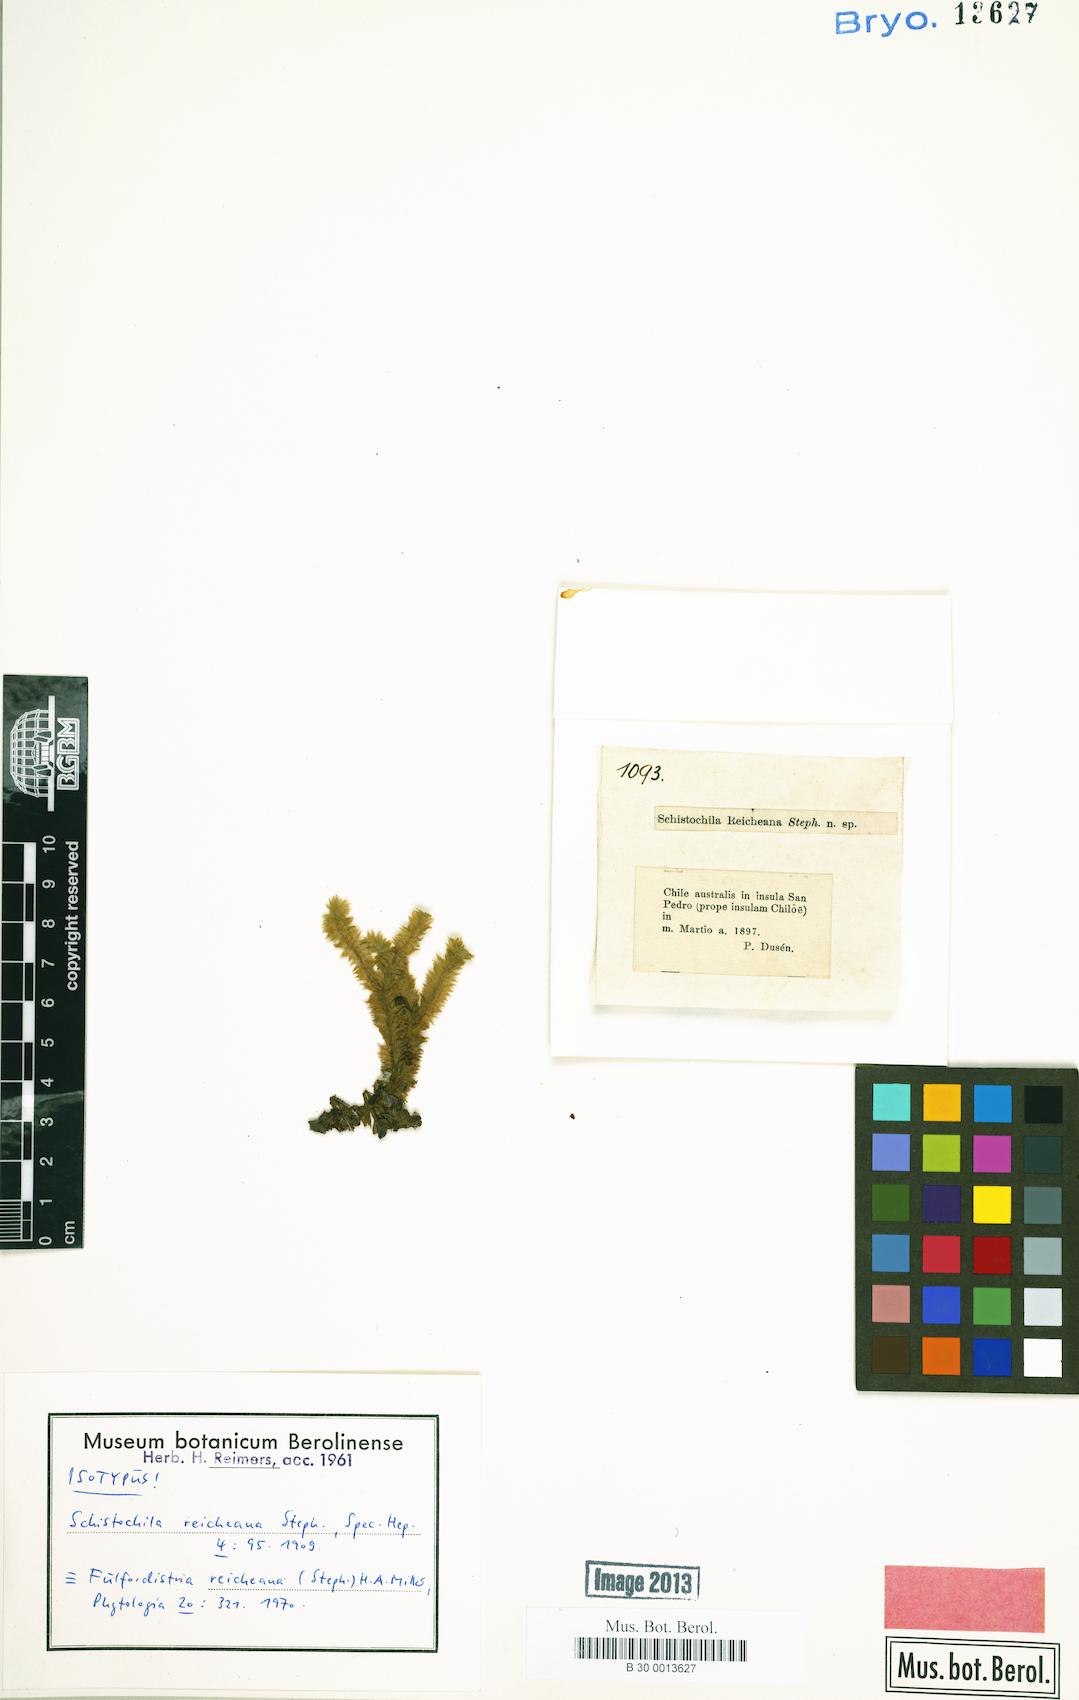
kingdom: Plantae
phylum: Marchantiophyta
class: Jungermanniopsida
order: Jungermanniales
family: Schistochilaceae
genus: Schistochila
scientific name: Schistochila
